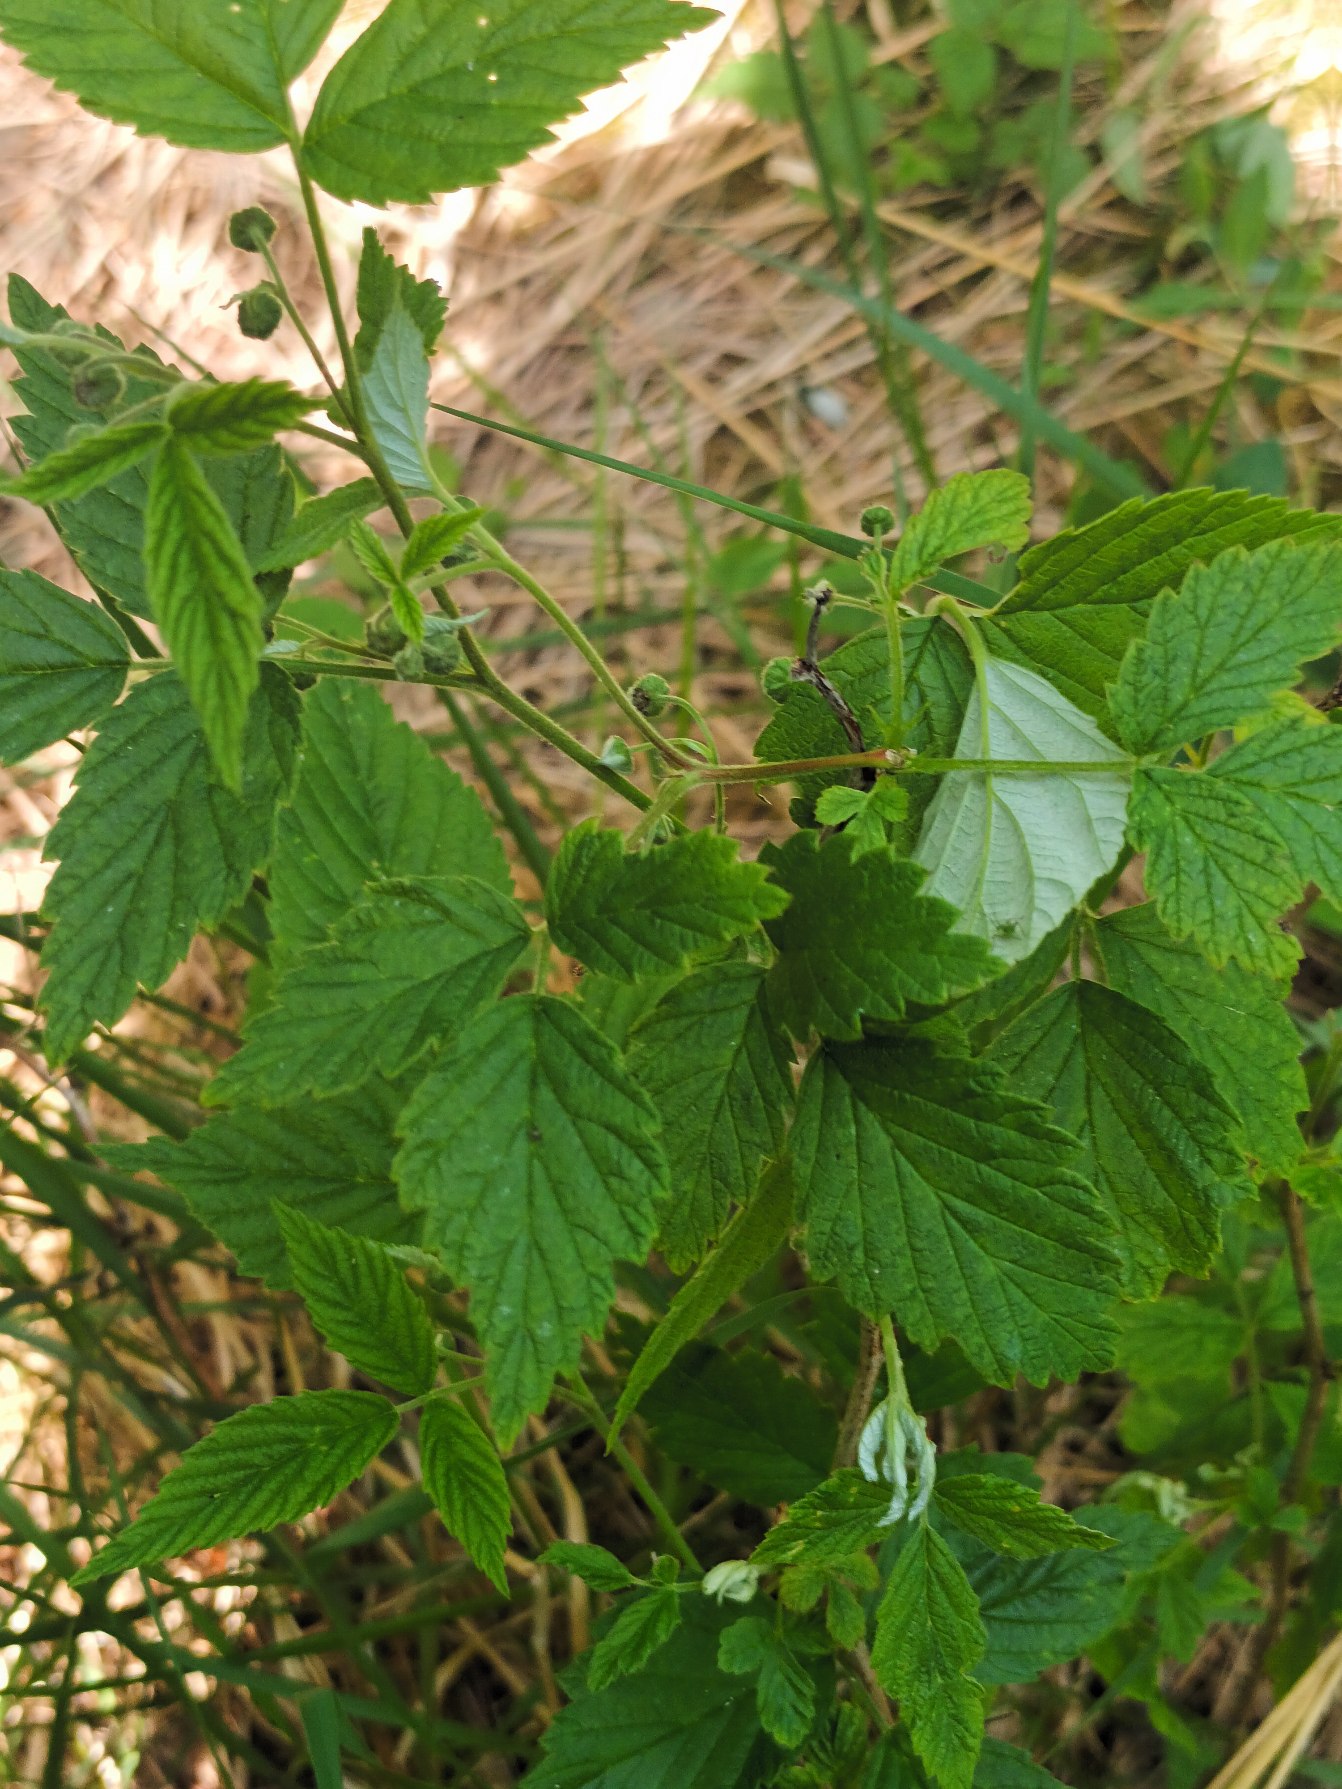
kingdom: Plantae
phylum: Tracheophyta
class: Magnoliopsida
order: Rosales
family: Rosaceae
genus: Rubus
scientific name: Rubus idaeus
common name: Hindbær
